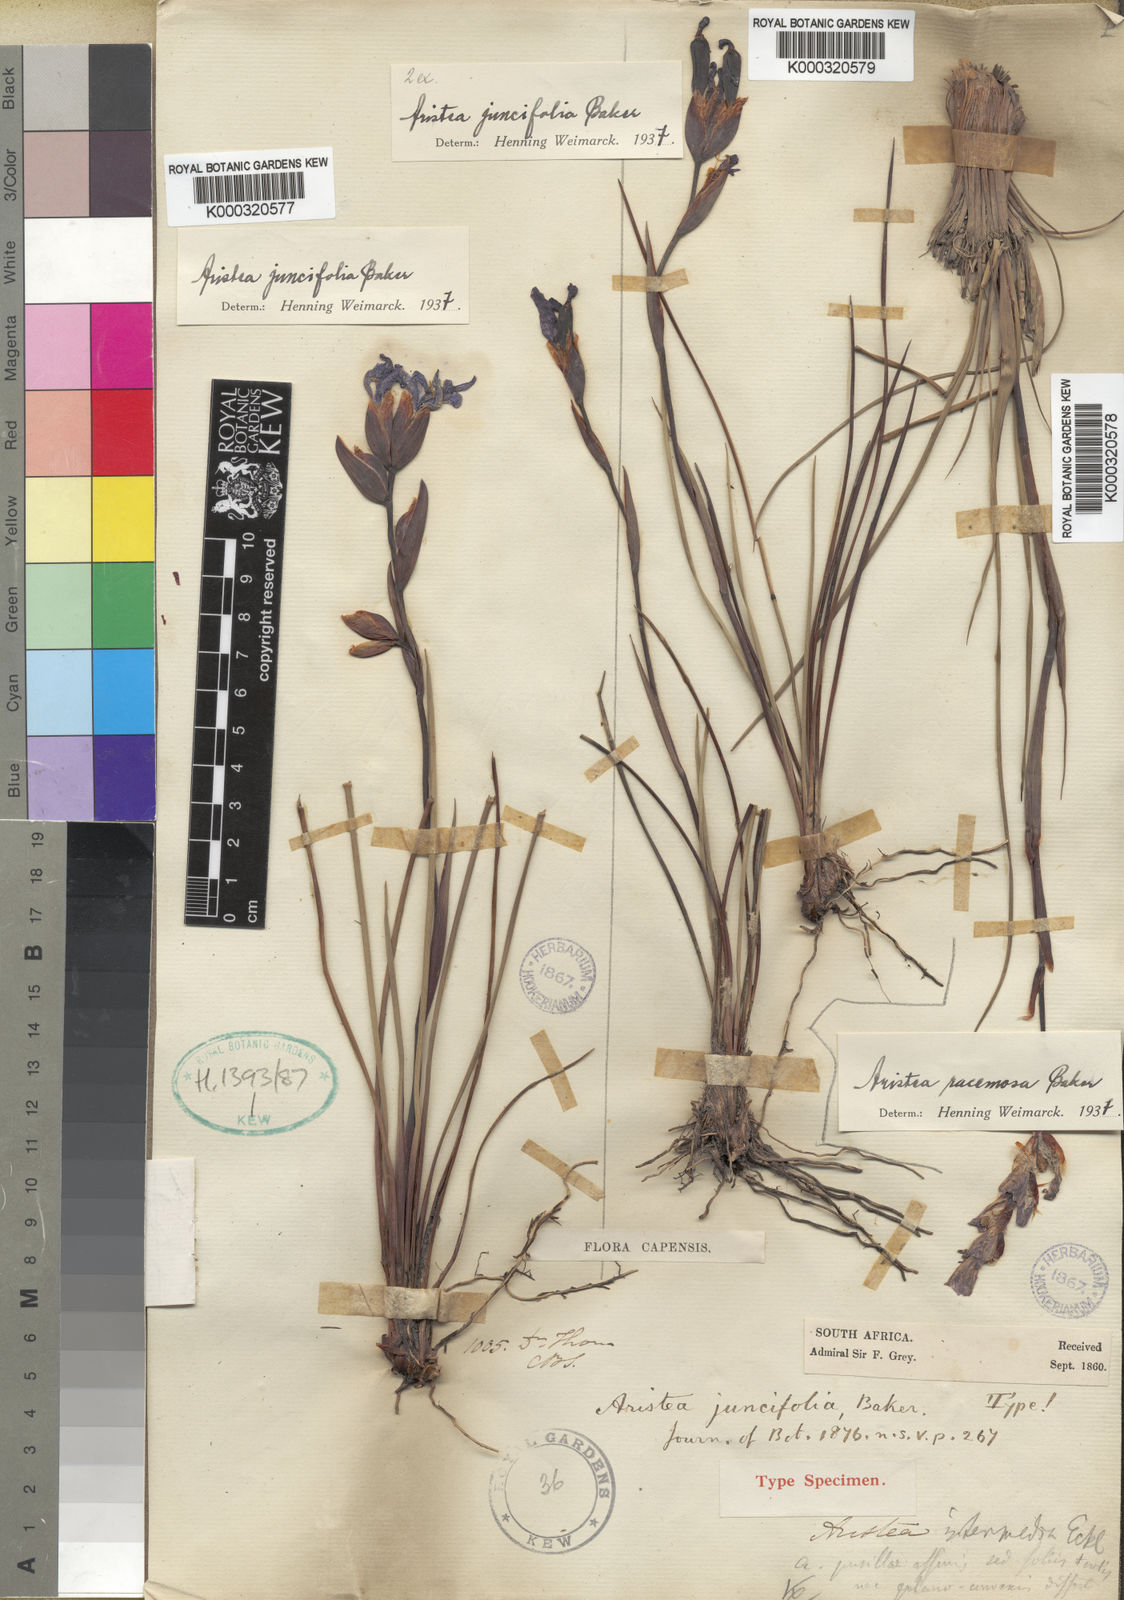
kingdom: Plantae
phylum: Tracheophyta
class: Liliopsida
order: Asparagales
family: Iridaceae
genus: Aristea
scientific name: Aristea juncifolia
